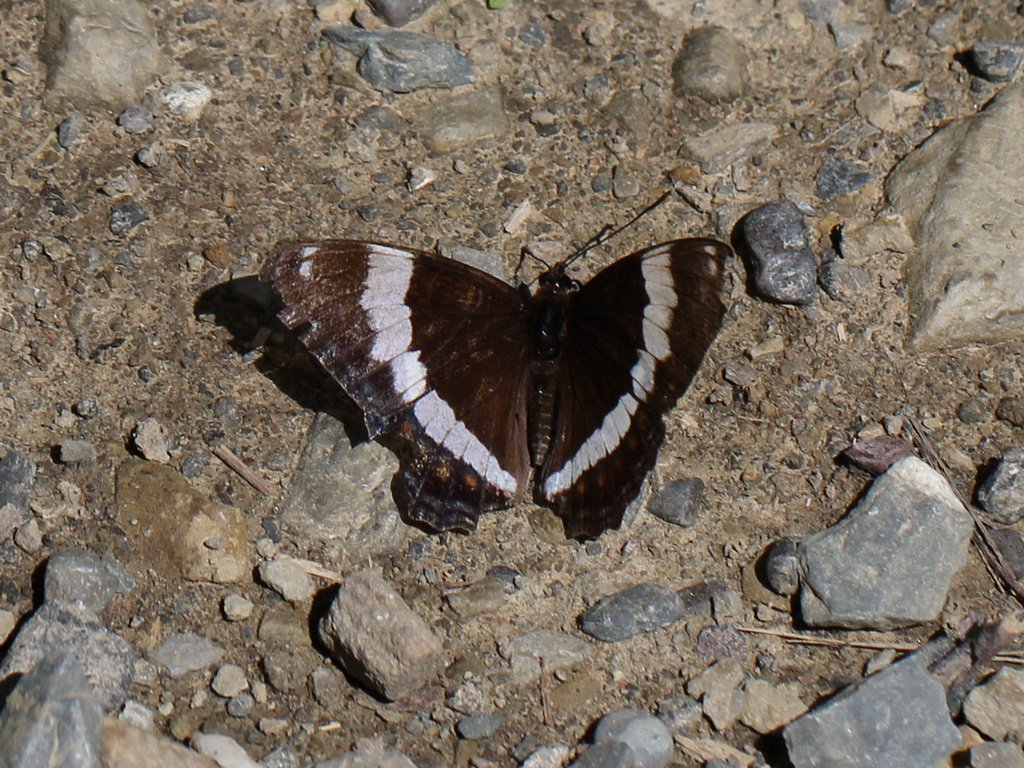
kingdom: Animalia
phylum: Arthropoda
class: Insecta
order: Lepidoptera
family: Nymphalidae
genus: Limenitis
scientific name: Limenitis arthemis
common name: Red-spotted Admiral
